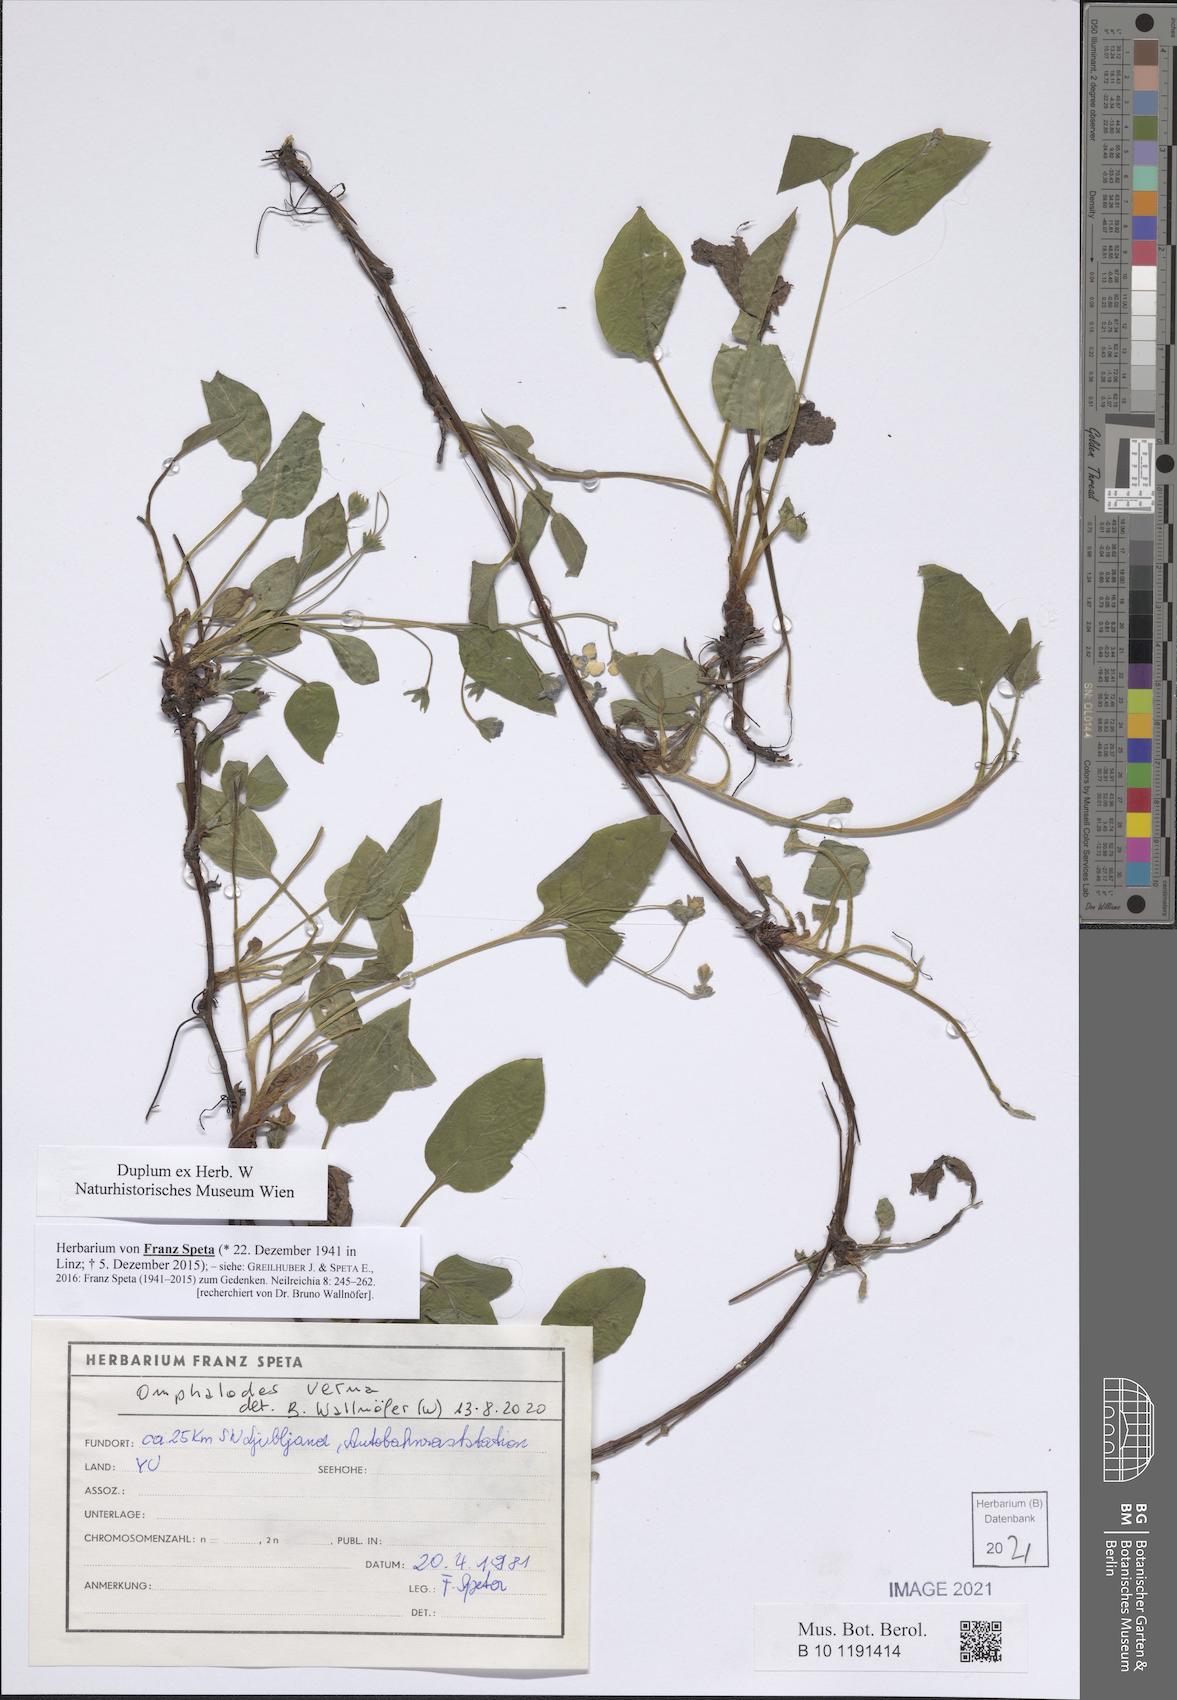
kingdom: Plantae
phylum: Tracheophyta
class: Magnoliopsida
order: Boraginales
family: Boraginaceae
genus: Omphalodes
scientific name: Omphalodes verna
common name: Blue-eyed-mary
